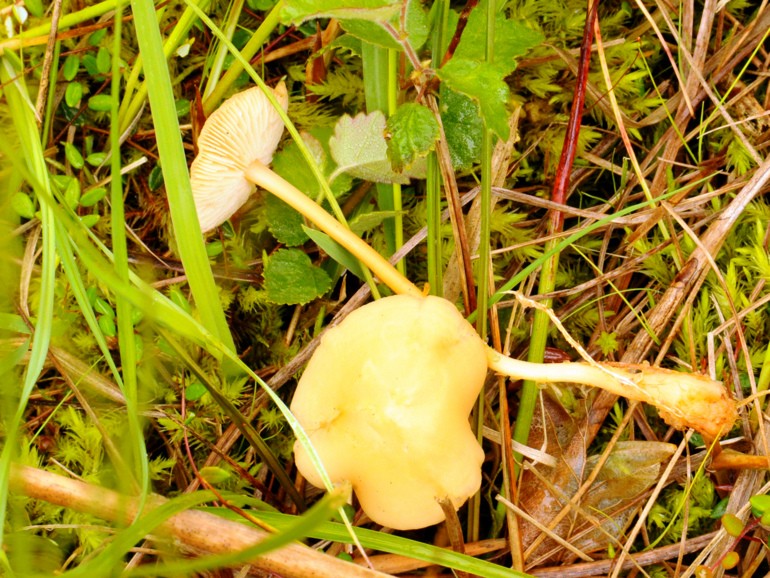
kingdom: Fungi
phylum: Basidiomycota
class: Agaricomycetes
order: Agaricales
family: Omphalotaceae
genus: Gymnopus
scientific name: Gymnopus aquosus
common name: bleg fladhat
